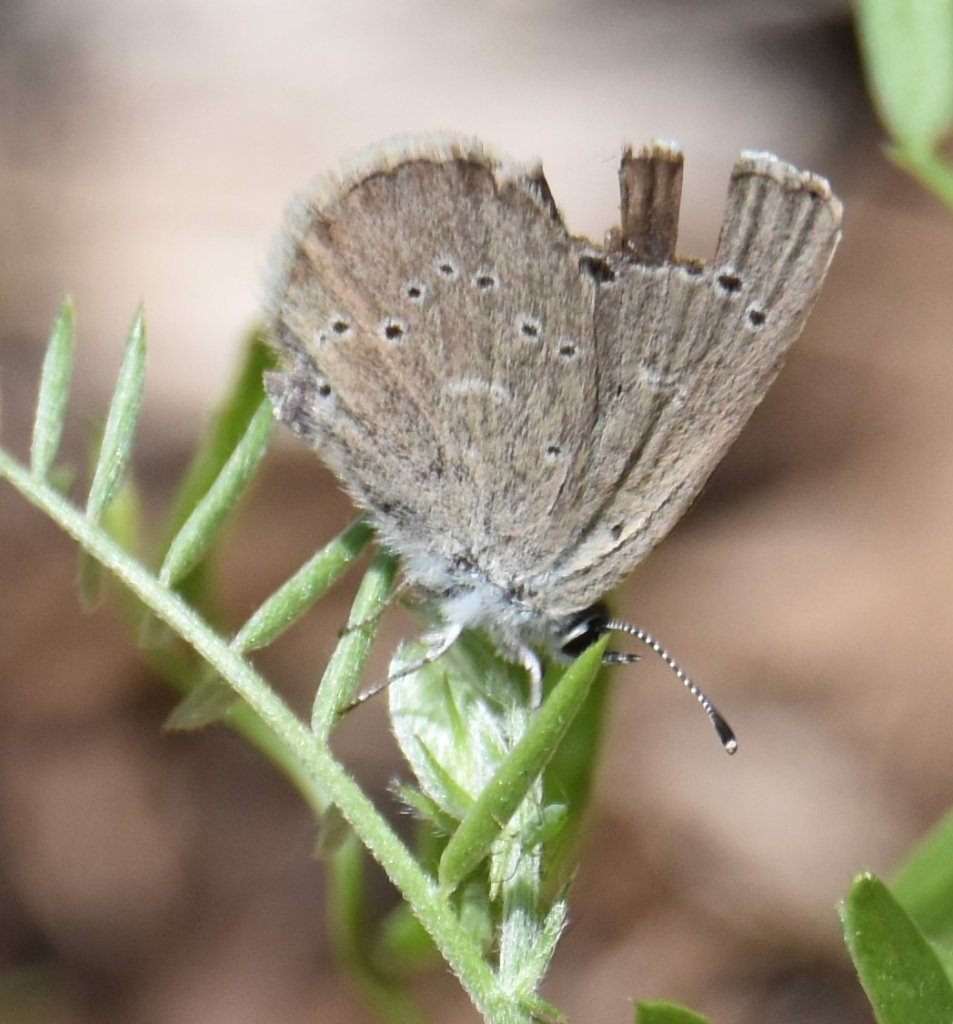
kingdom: Animalia
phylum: Arthropoda
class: Insecta
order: Lepidoptera
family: Lycaenidae
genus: Glaucopsyche
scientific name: Glaucopsyche lygdamus
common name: Silvery Blue
